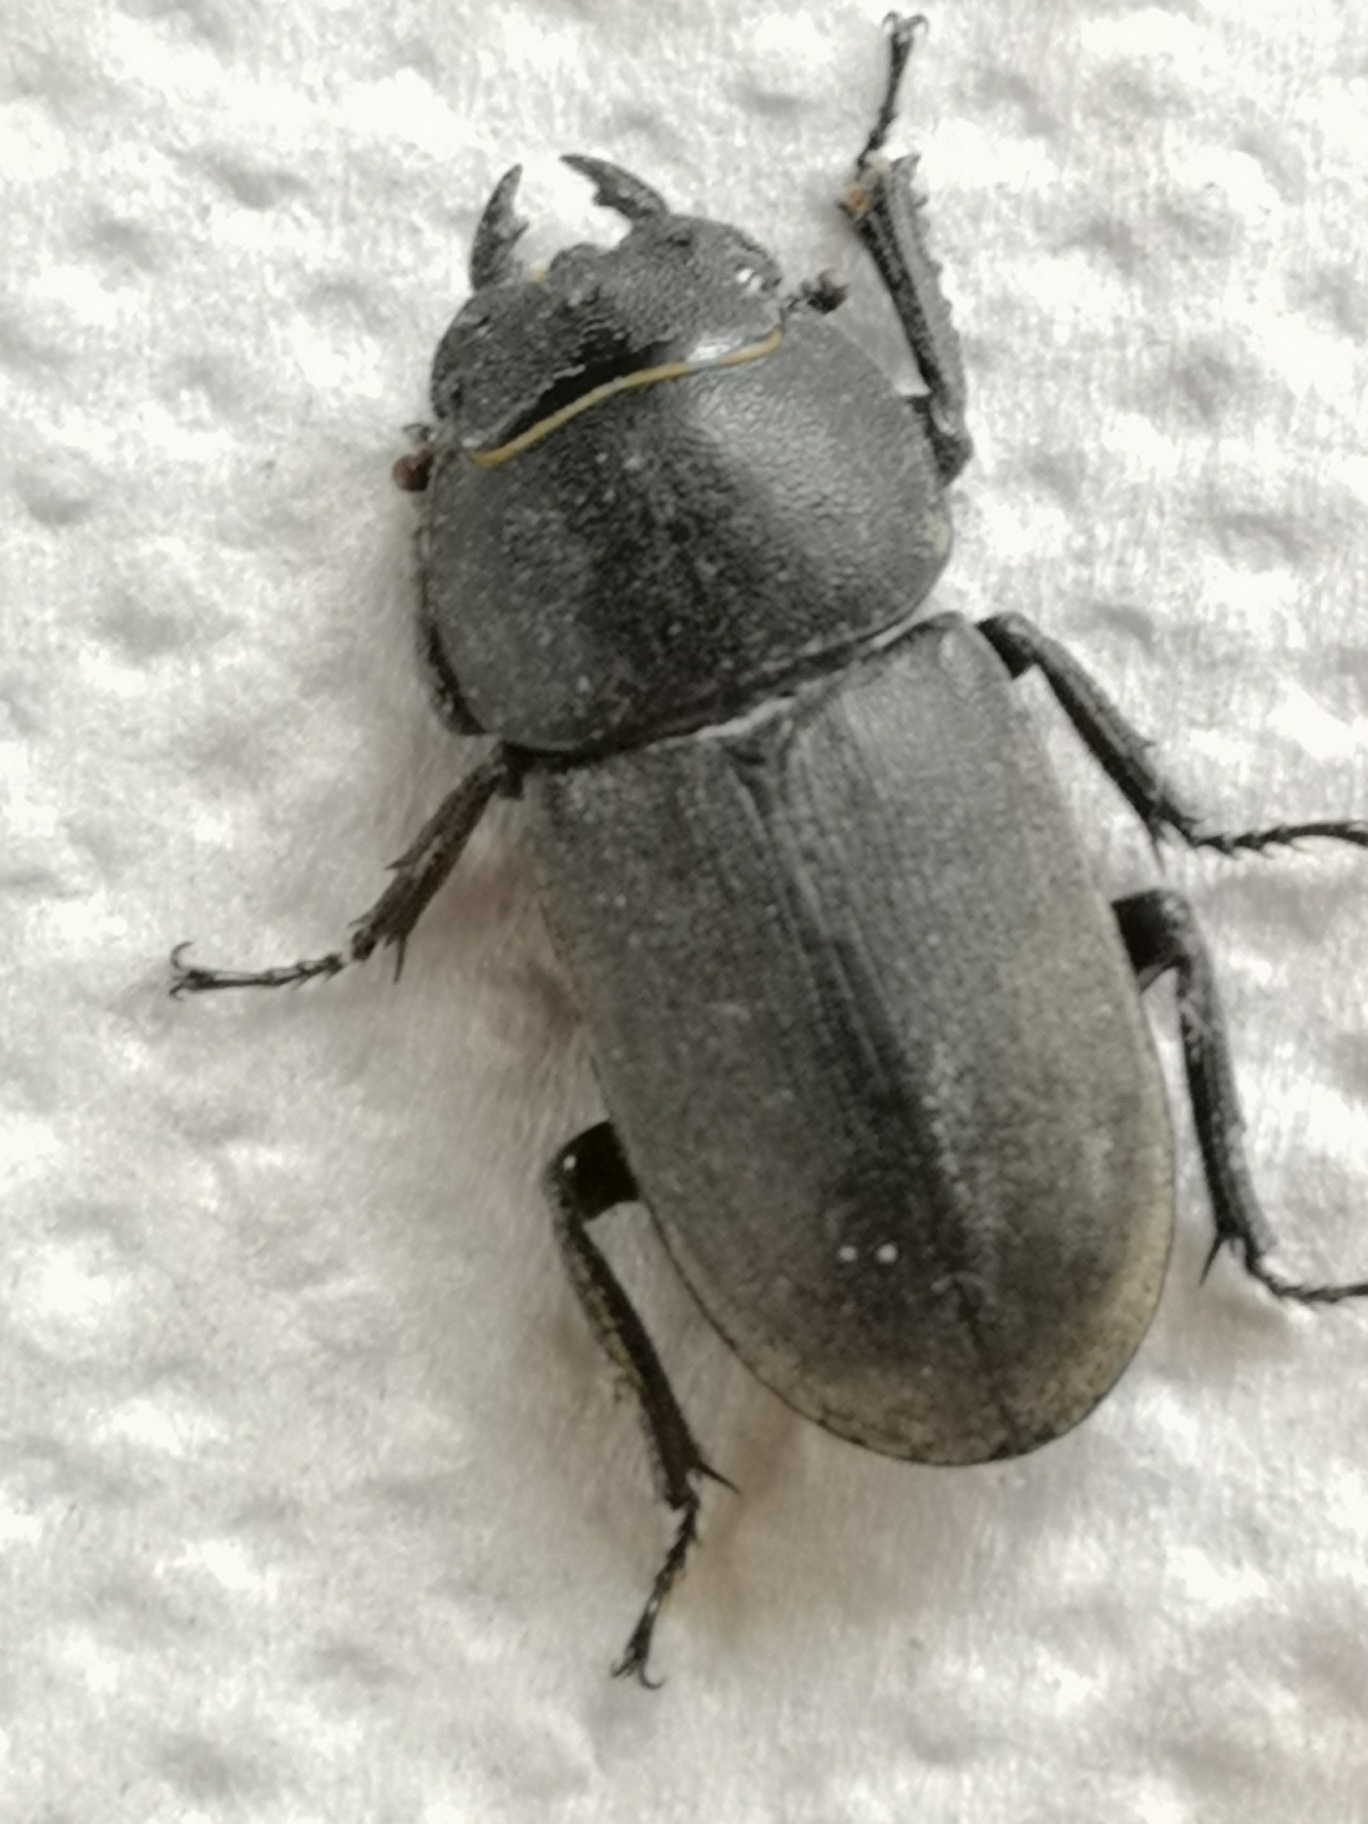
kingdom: Animalia
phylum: Arthropoda
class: Insecta
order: Coleoptera
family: Lucanidae
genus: Dorcus
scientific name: Dorcus parallelipipedus
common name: Bøghjort
